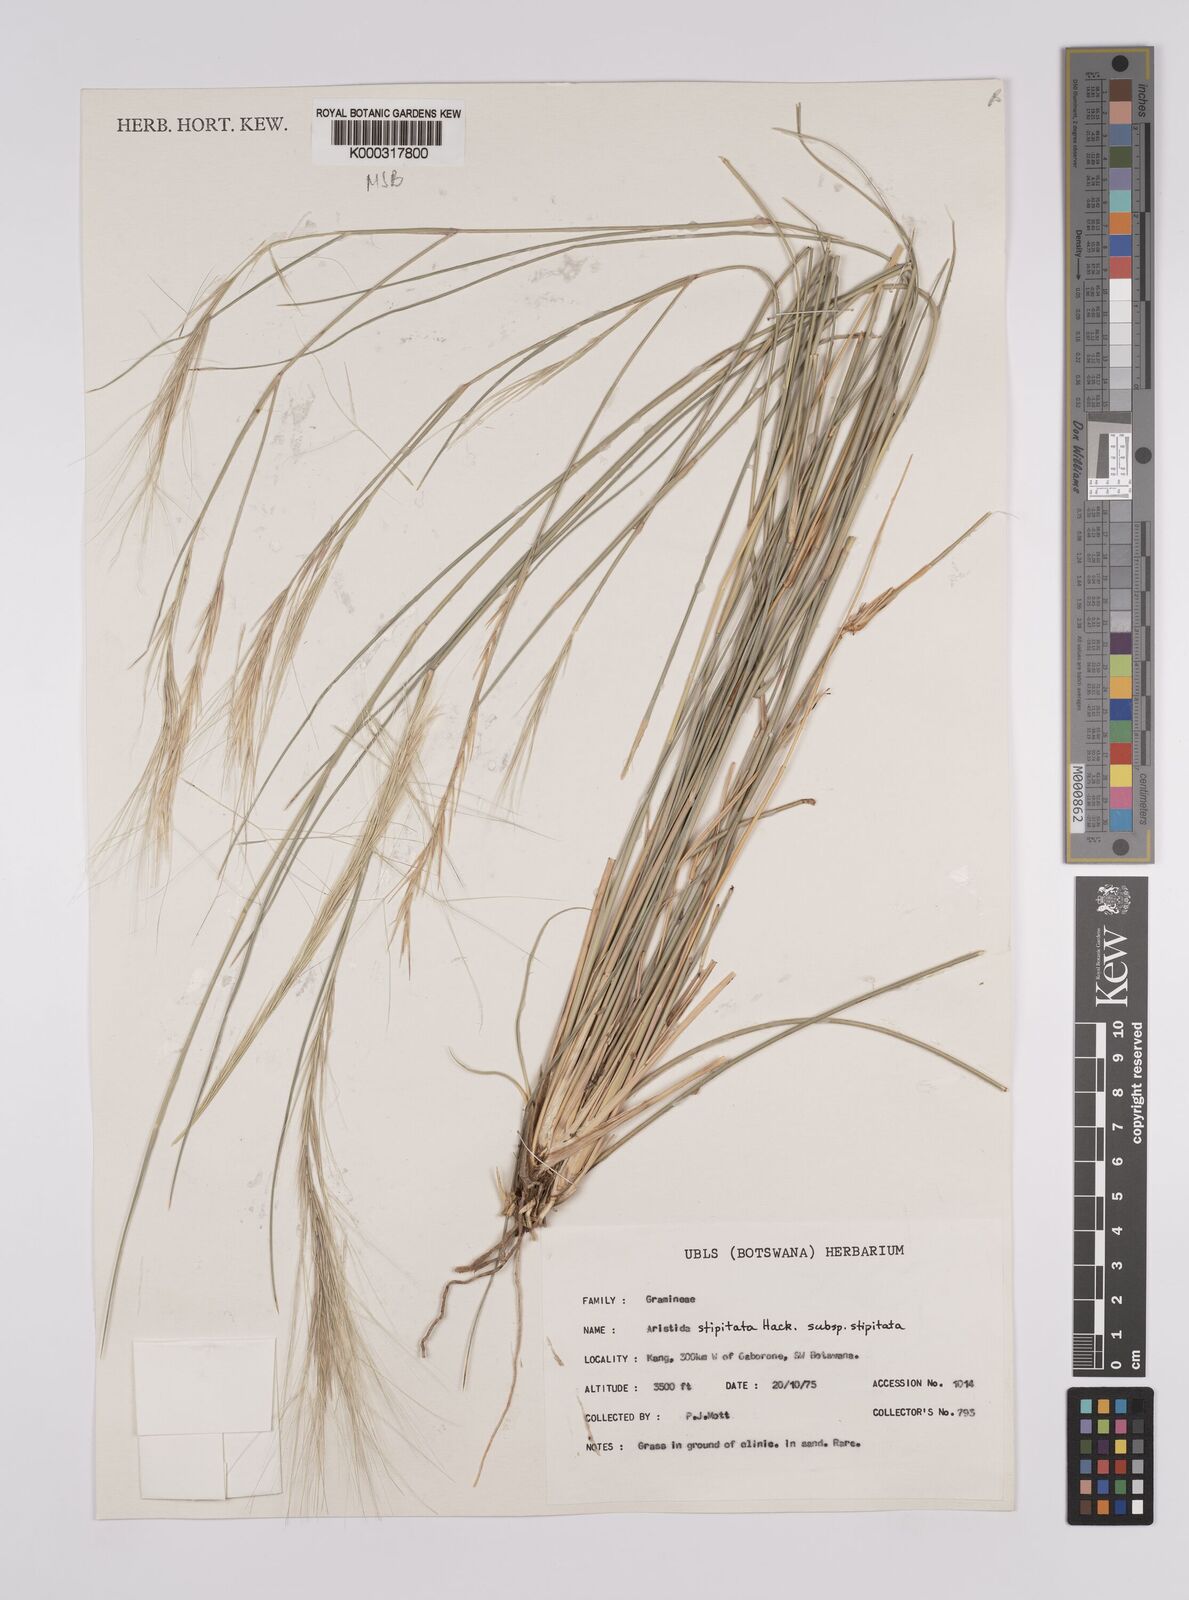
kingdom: Plantae
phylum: Tracheophyta
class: Liliopsida
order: Poales
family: Poaceae
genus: Aristida
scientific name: Aristida stipitata
